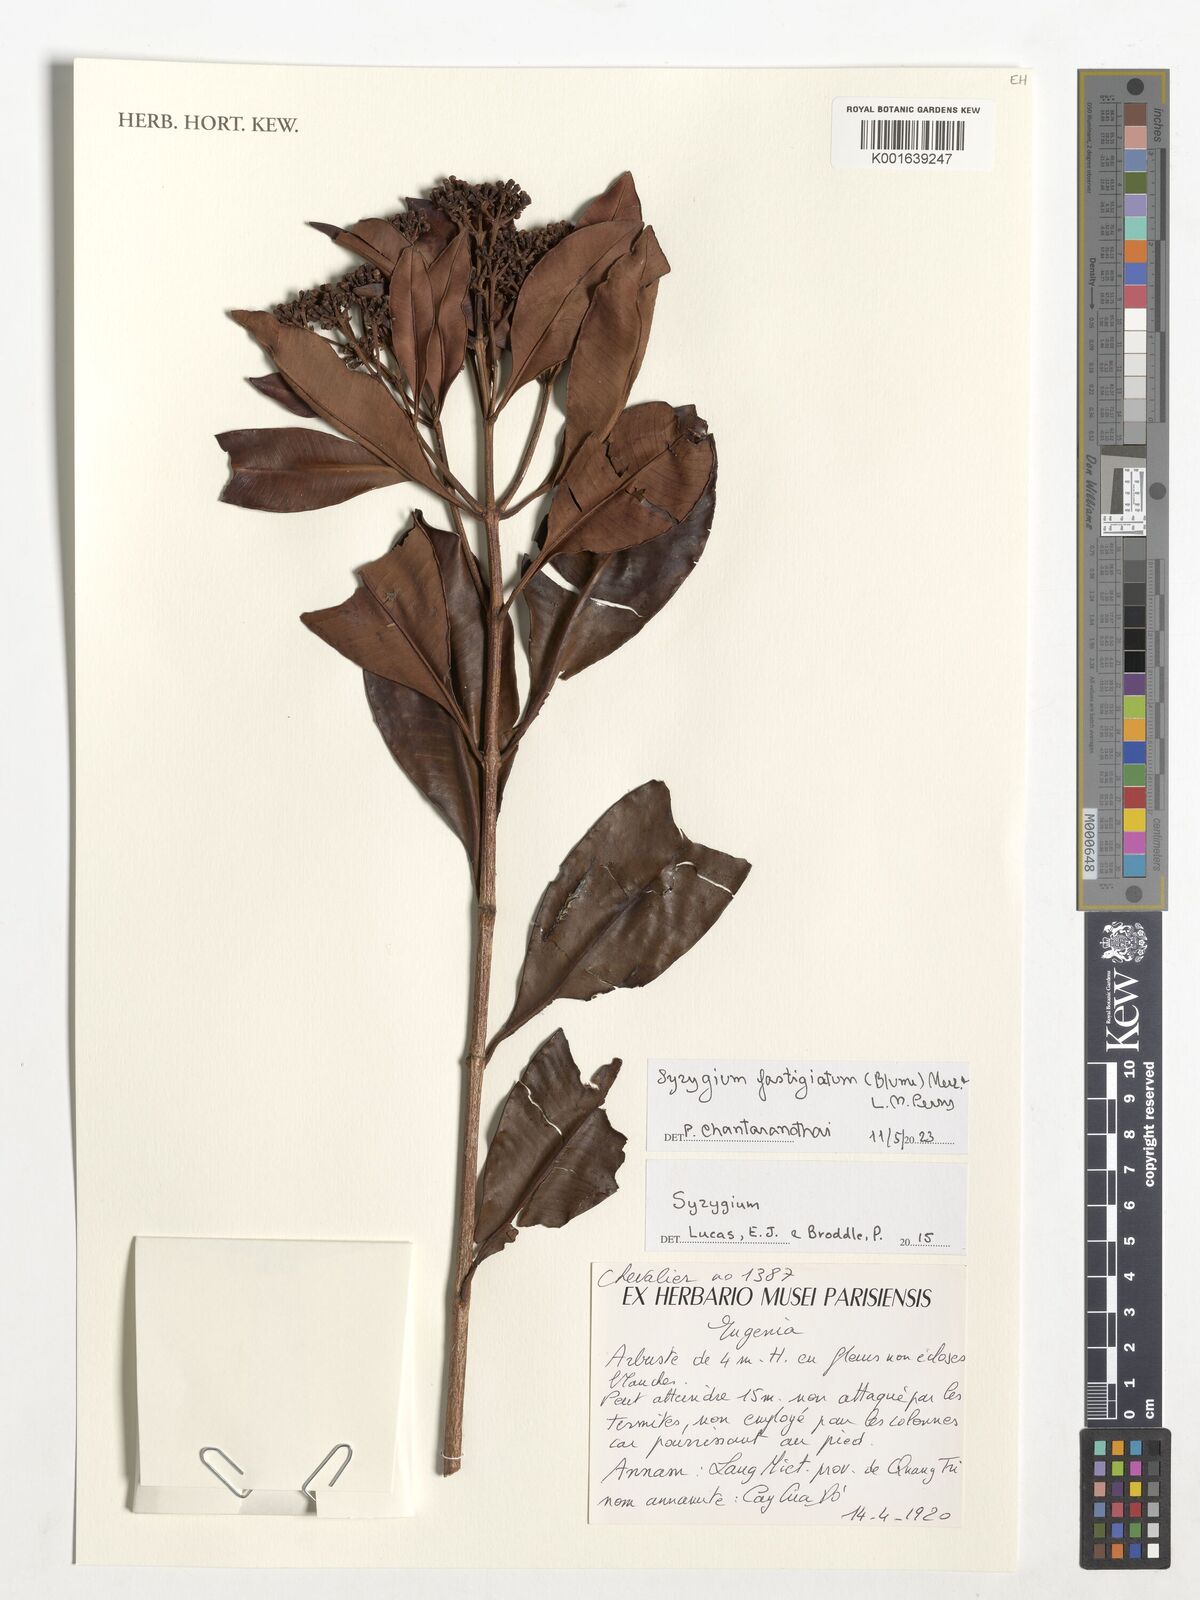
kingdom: Plantae
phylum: Tracheophyta
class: Magnoliopsida
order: Myrtales
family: Myrtaceae
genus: Syzygium
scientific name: Syzygium fastigiatum
